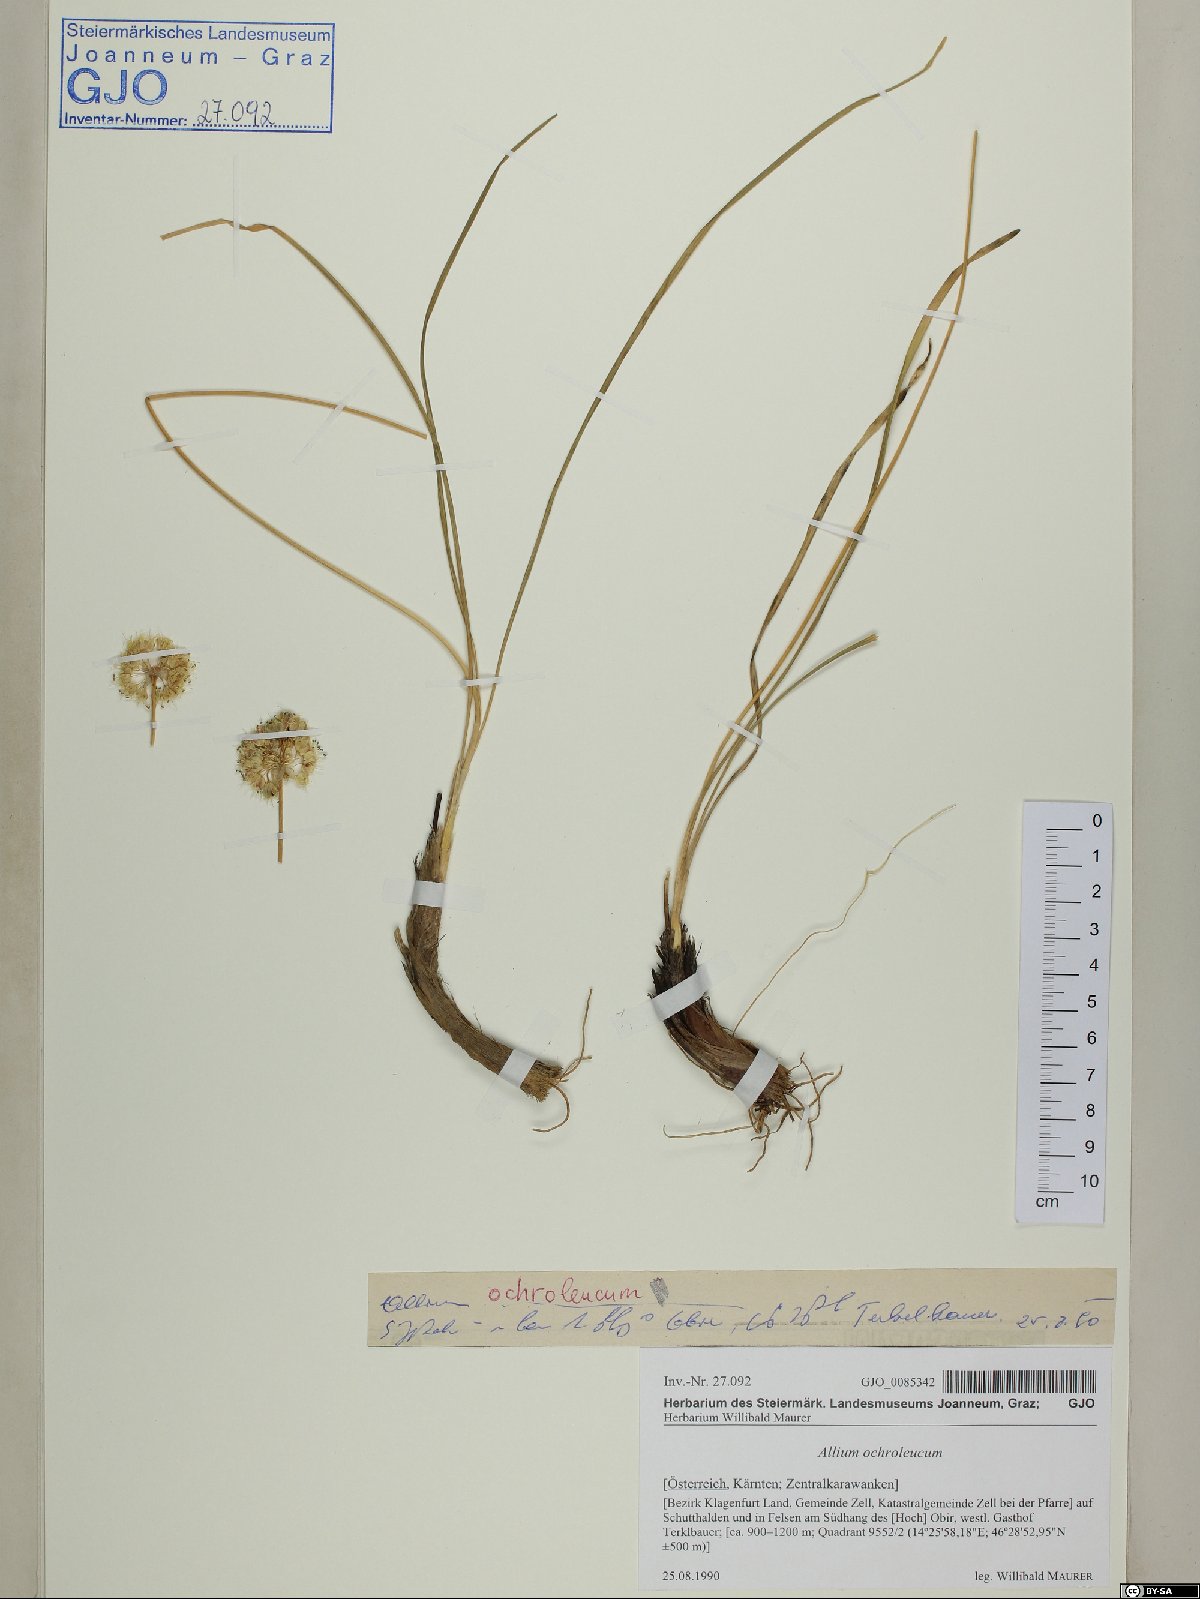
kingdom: Plantae
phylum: Tracheophyta
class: Liliopsida
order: Asparagales
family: Amaryllidaceae
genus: Allium
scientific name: Allium ericetorum
